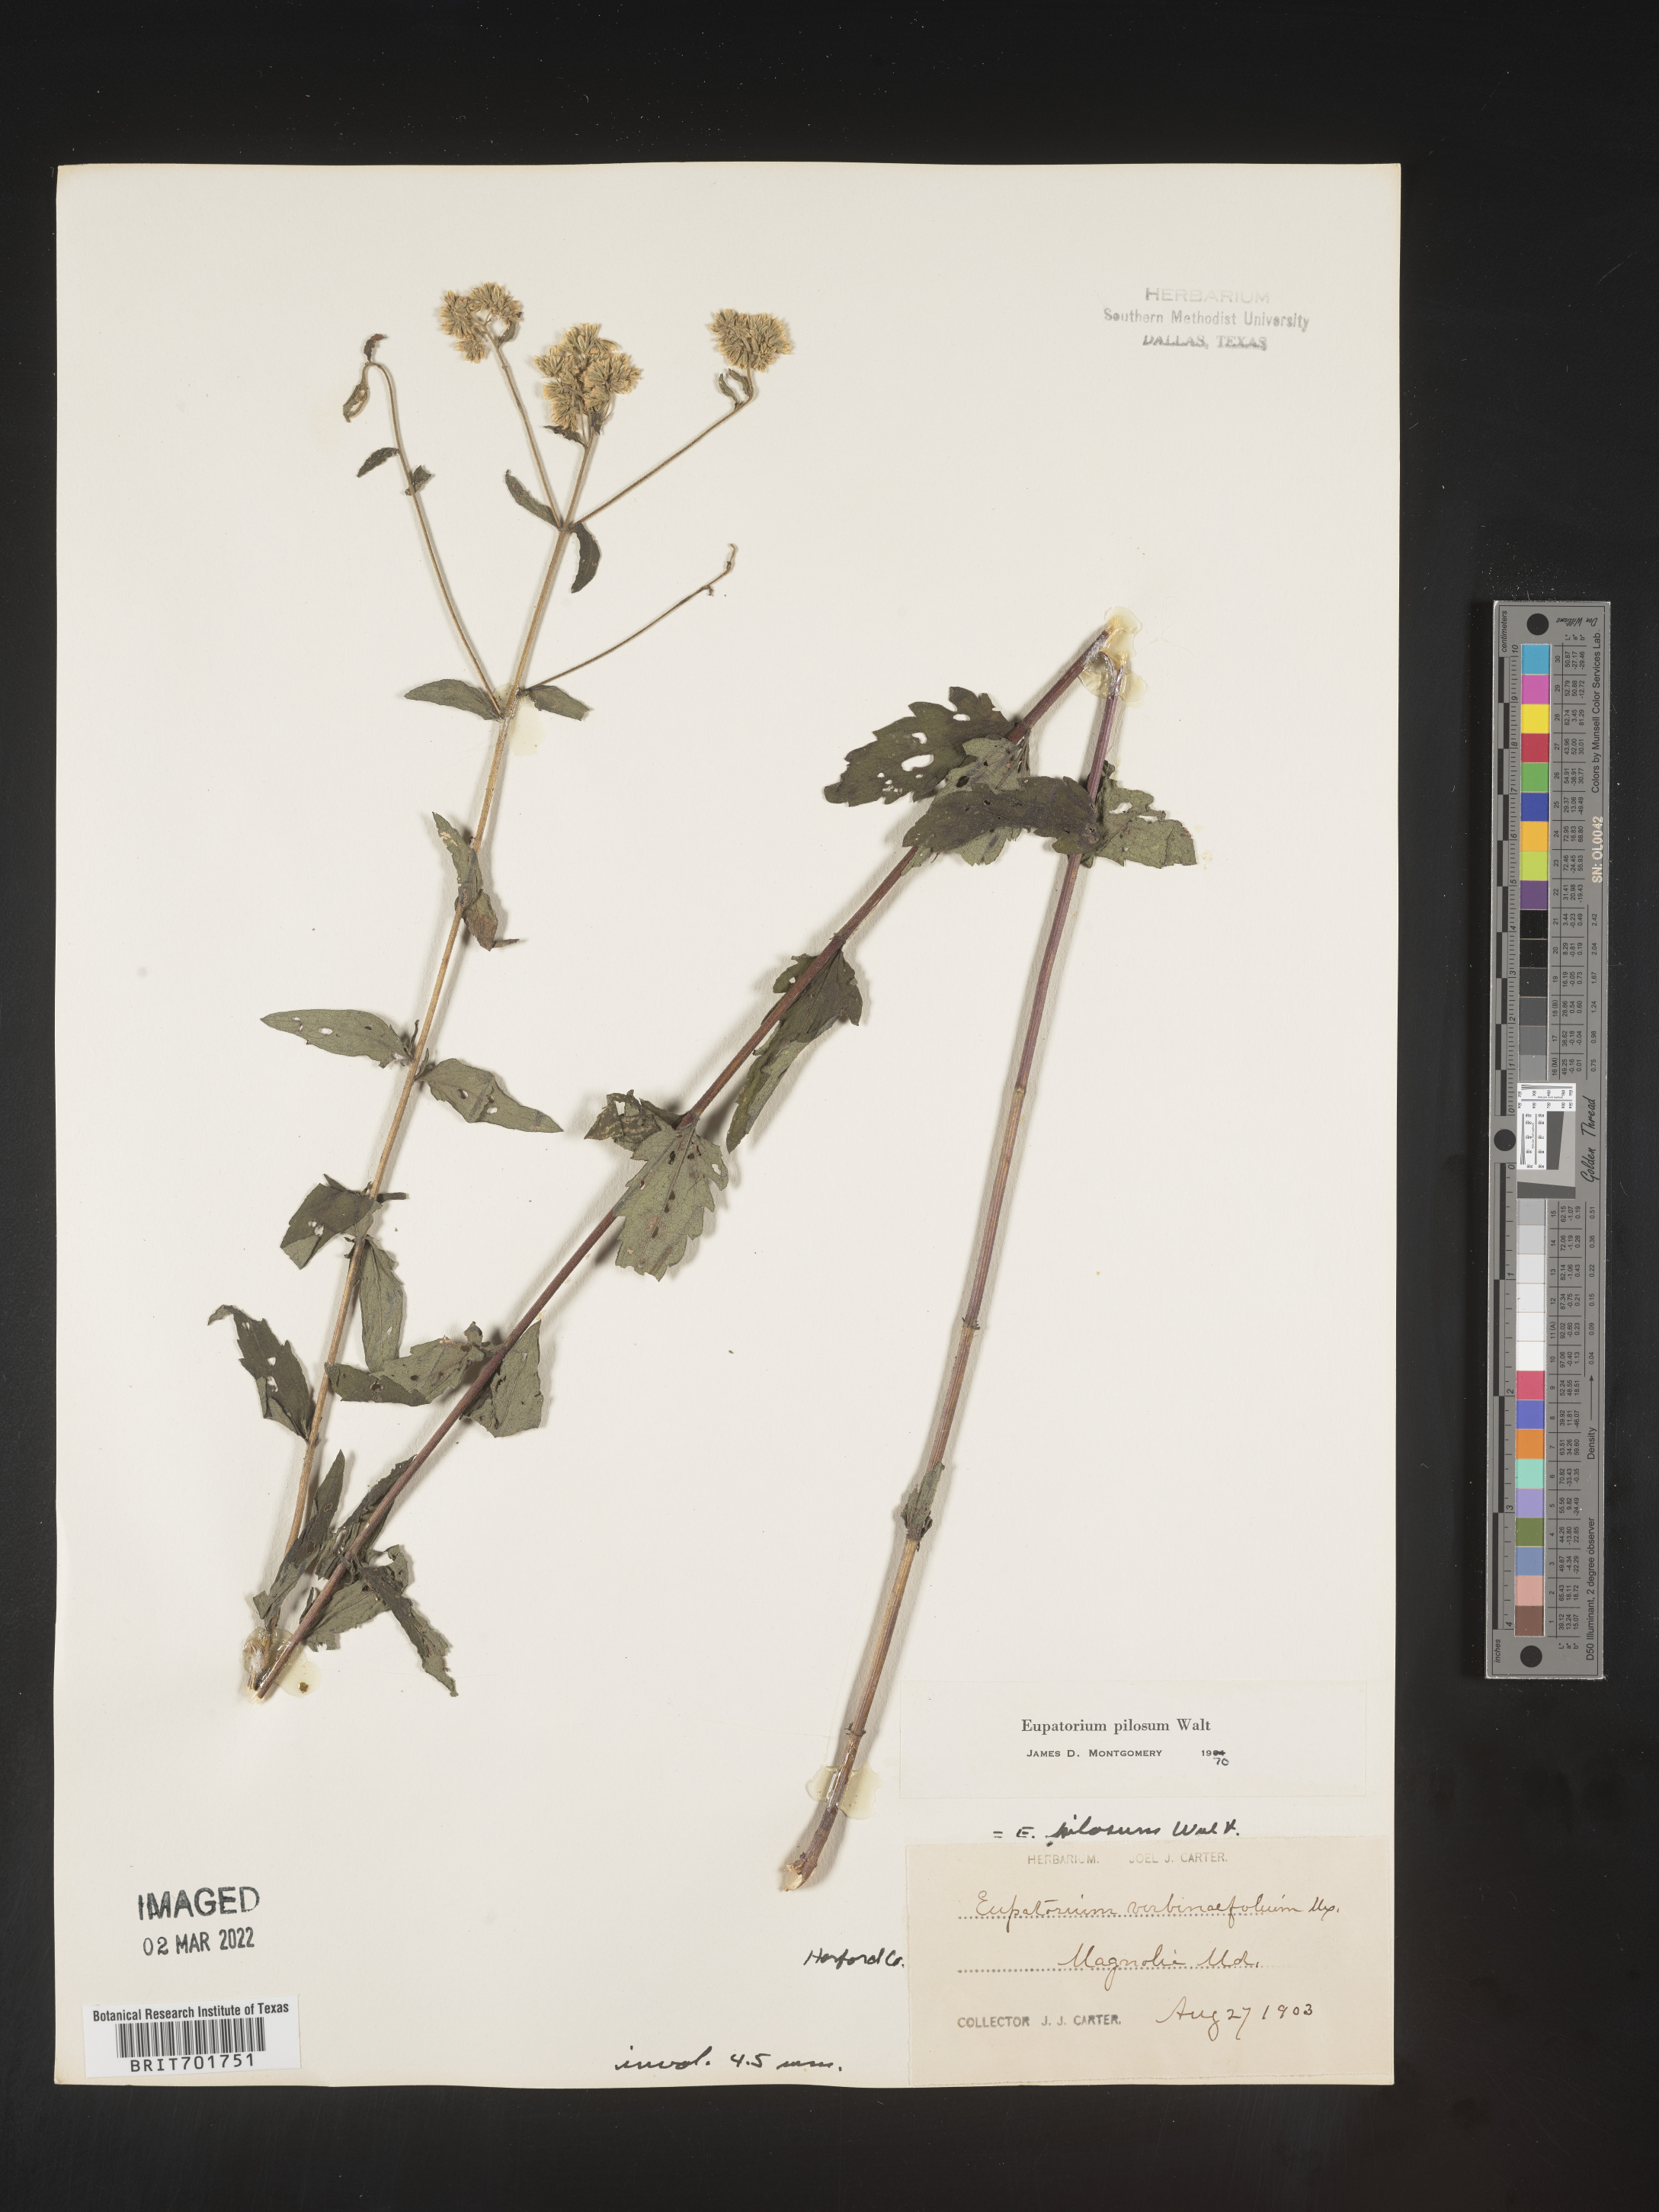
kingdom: Plantae
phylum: Tracheophyta
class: Magnoliopsida
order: Asterales
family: Asteraceae
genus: Eupatorium
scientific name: Eupatorium pilosum
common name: Rough boneset
